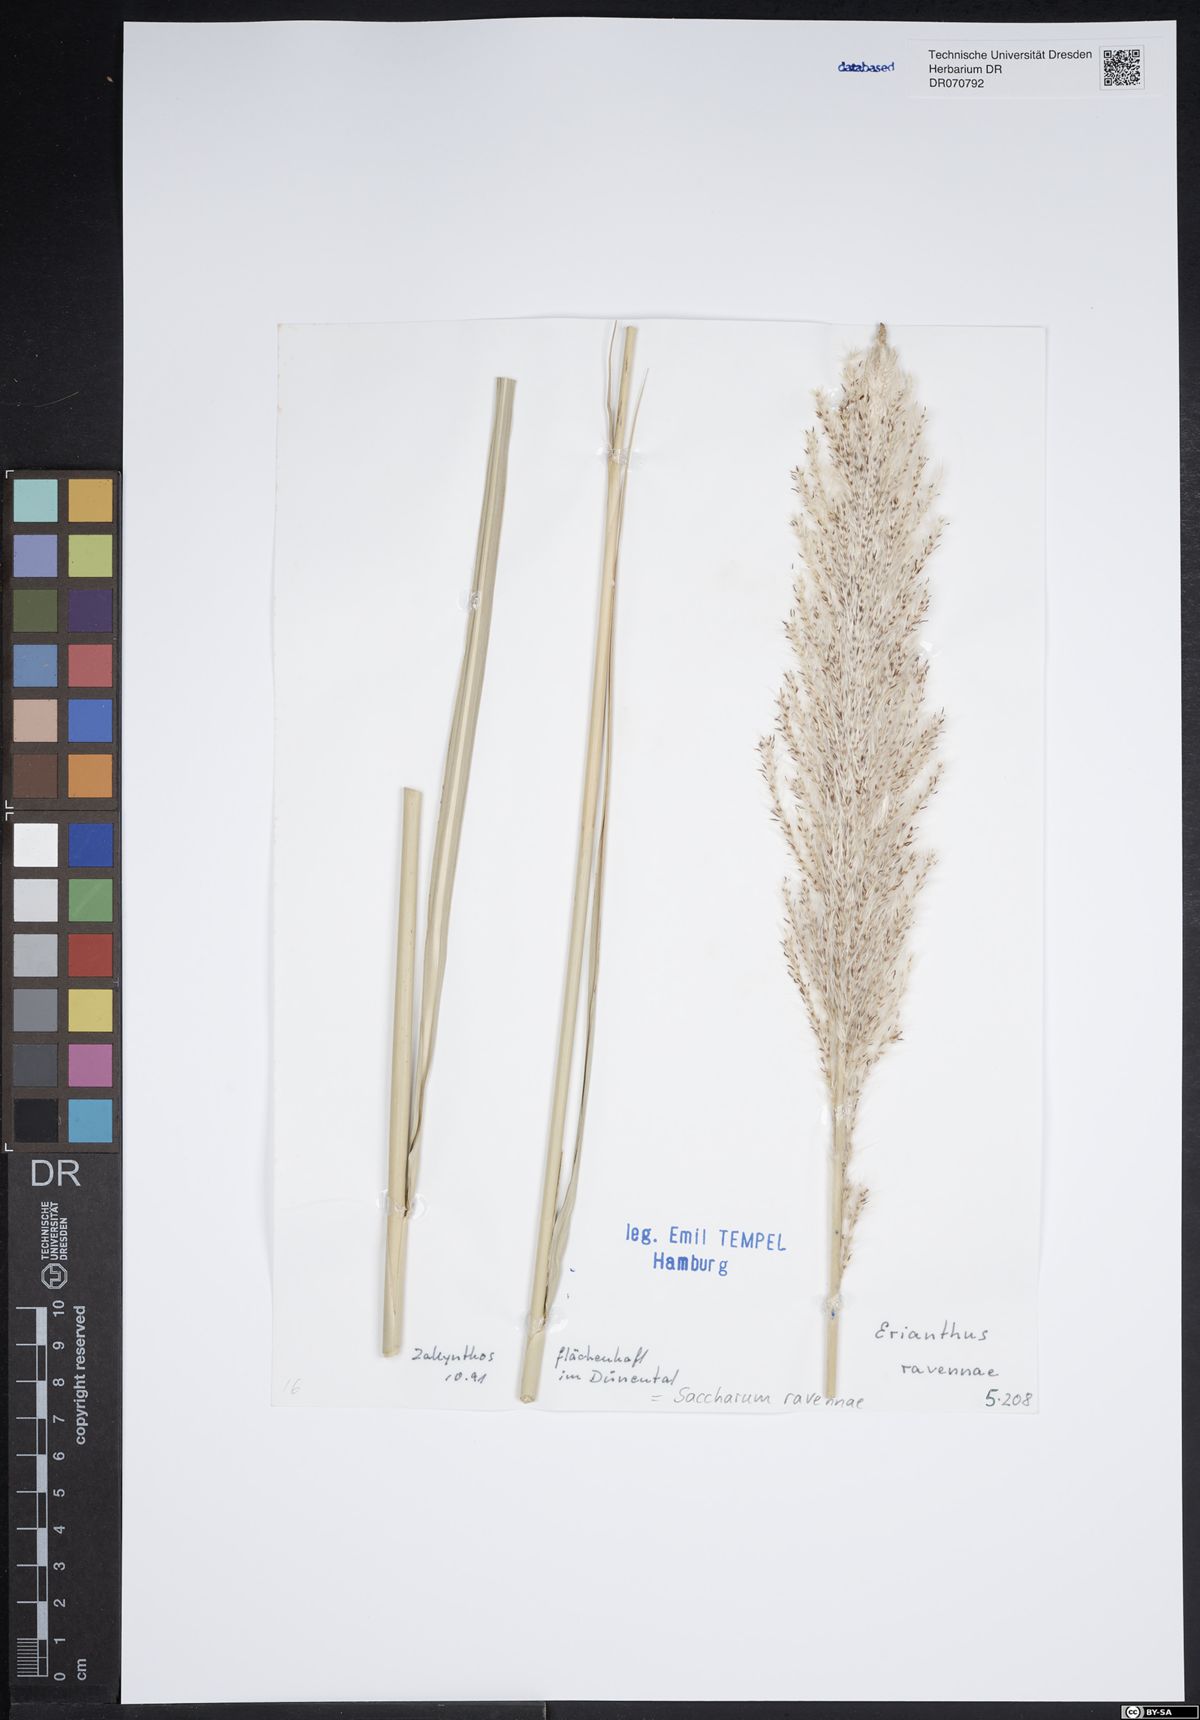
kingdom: Plantae
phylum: Tracheophyta
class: Liliopsida
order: Poales
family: Poaceae
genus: Tripidium
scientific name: Tripidium ravennae
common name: Ravenna grass
